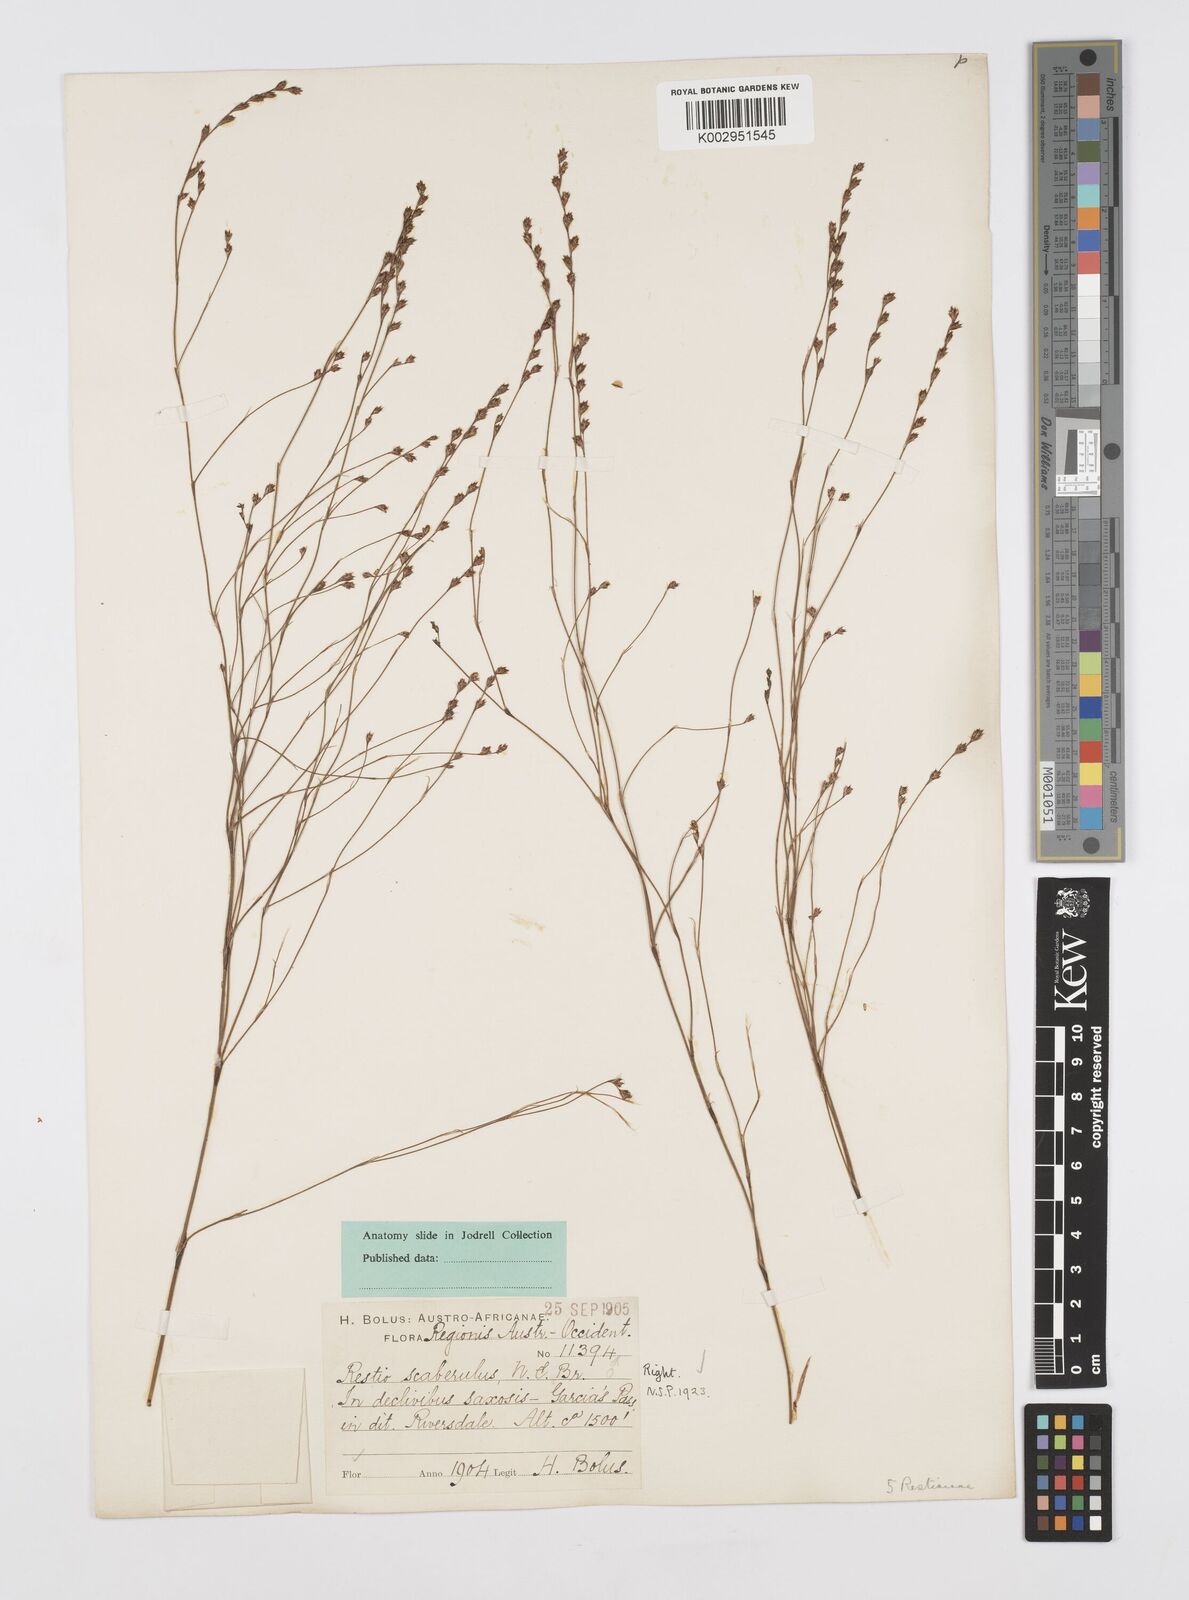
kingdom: Plantae
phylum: Tracheophyta
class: Liliopsida
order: Poales
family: Restionaceae
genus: Restio
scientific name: Restio scaberulus
